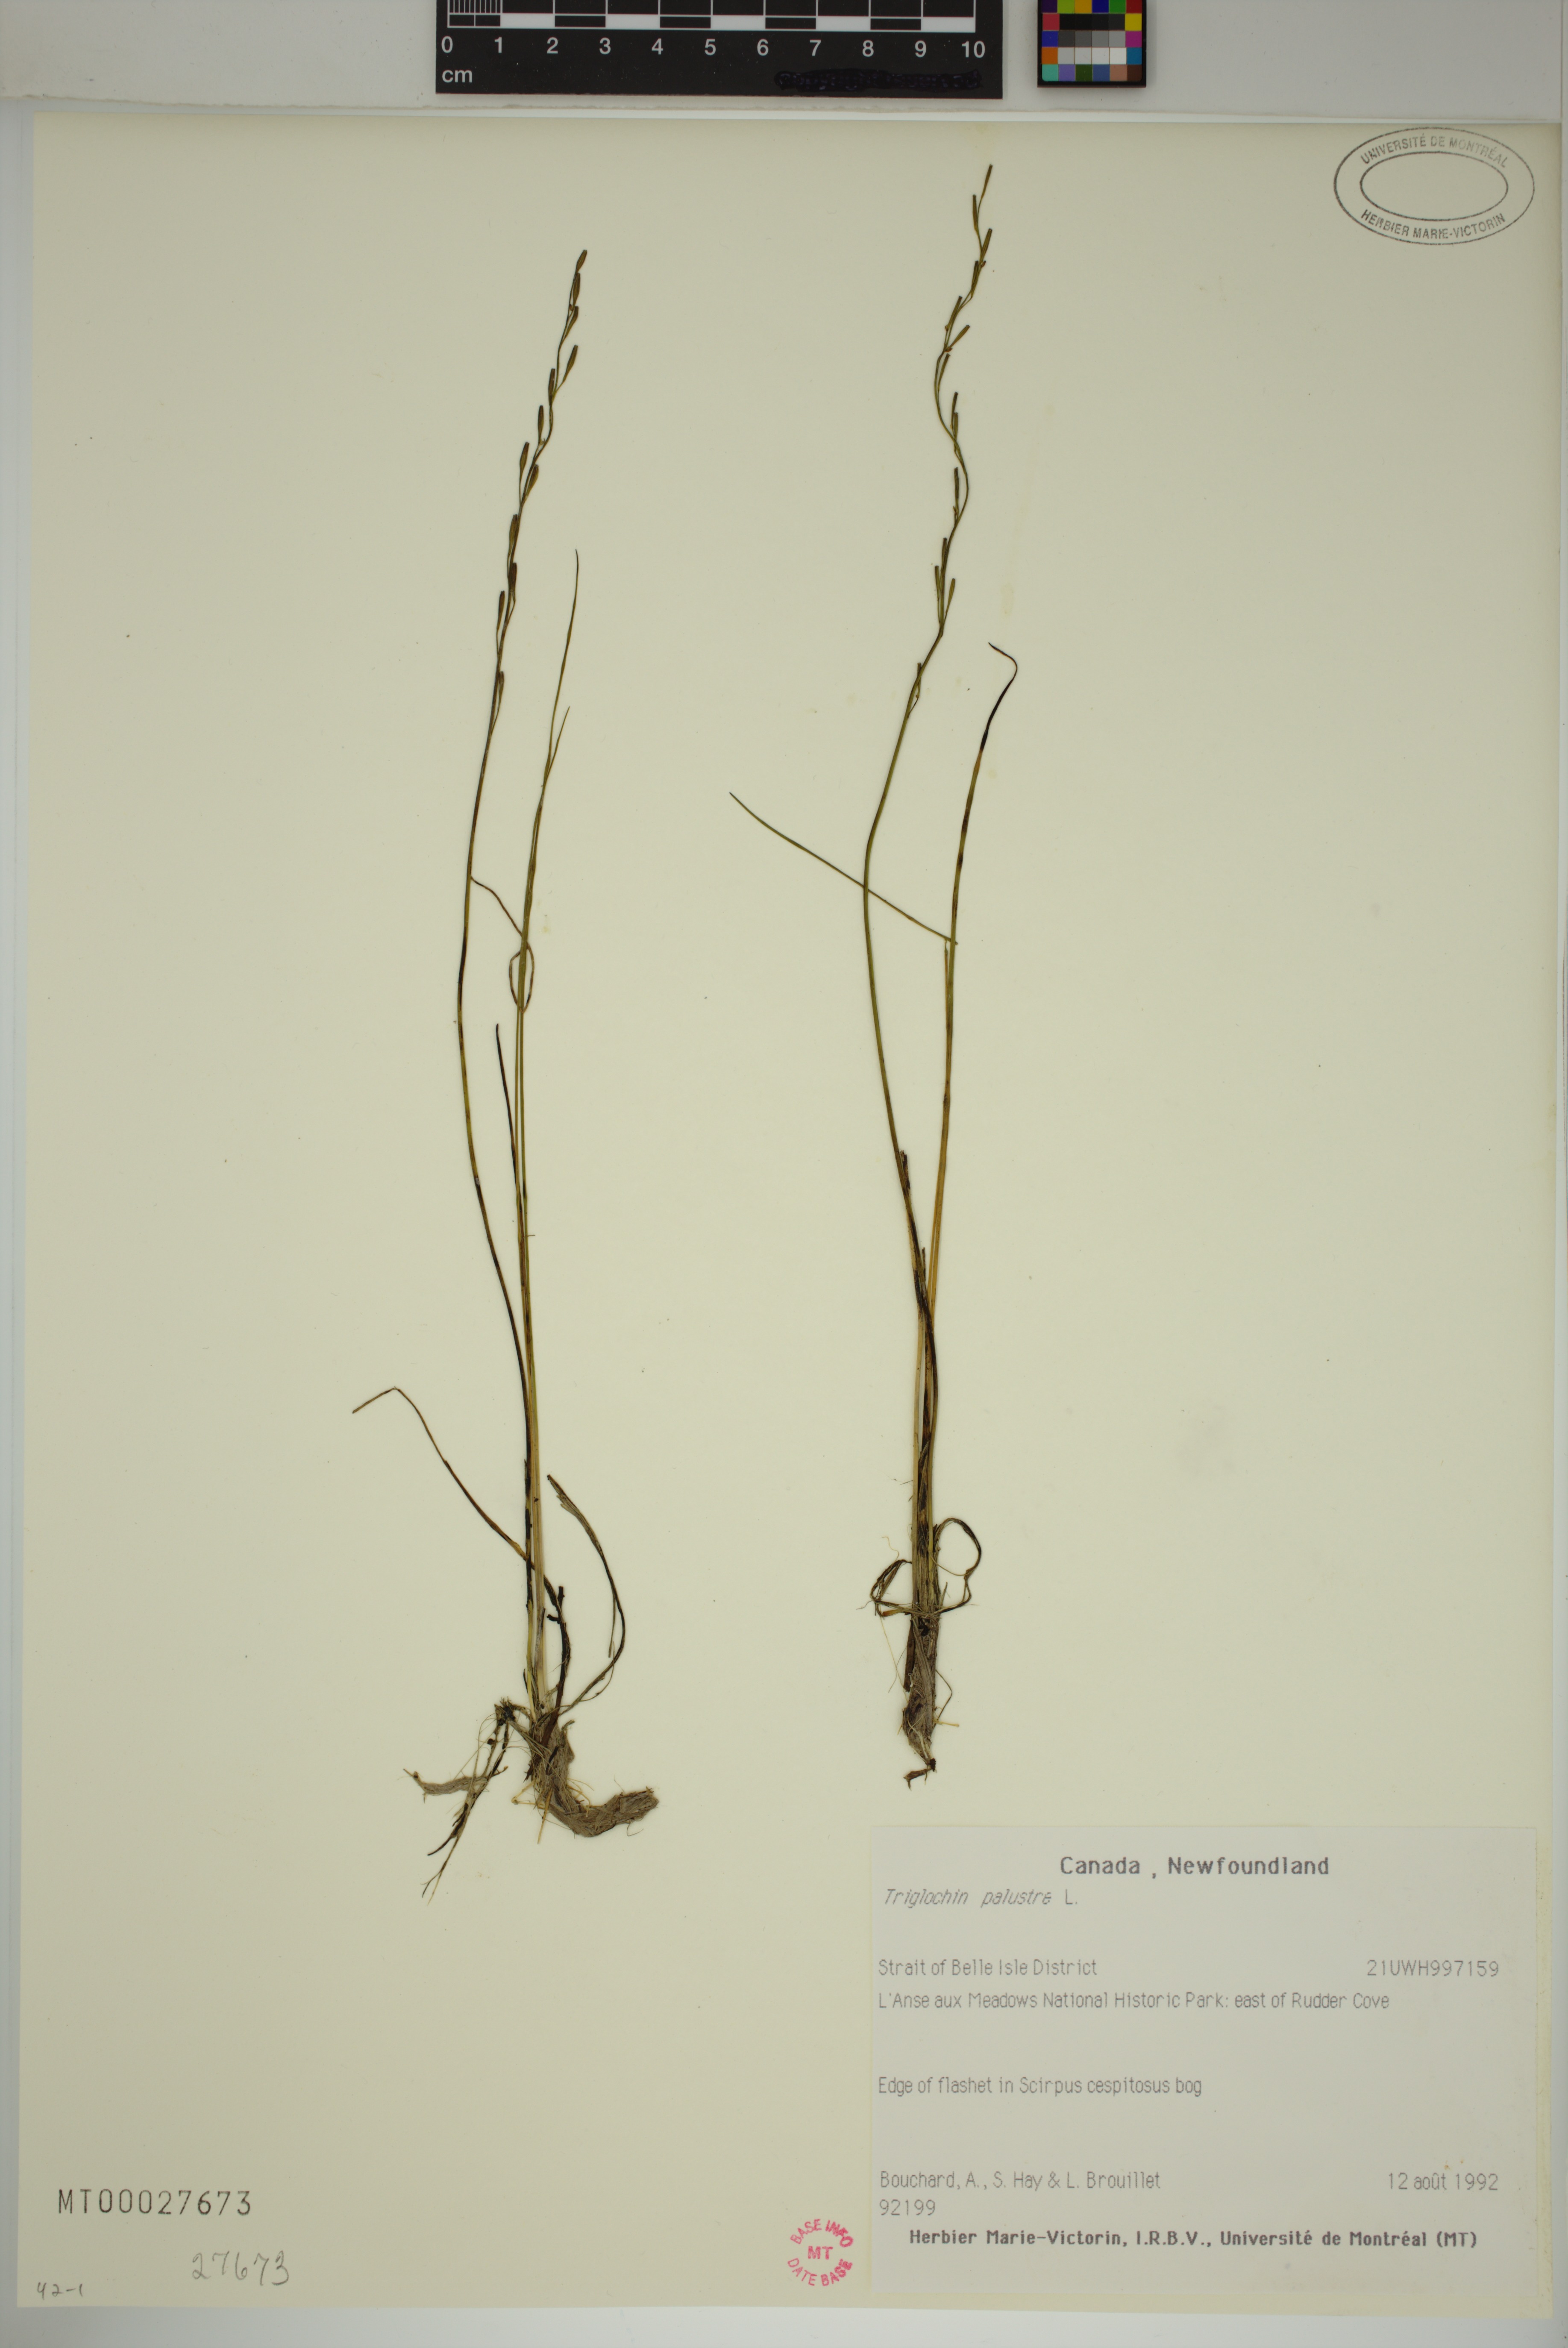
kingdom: Plantae
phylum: Tracheophyta
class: Liliopsida
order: Alismatales
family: Juncaginaceae
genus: Triglochin
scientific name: Triglochin palustris
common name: Marsh arrowgrass
